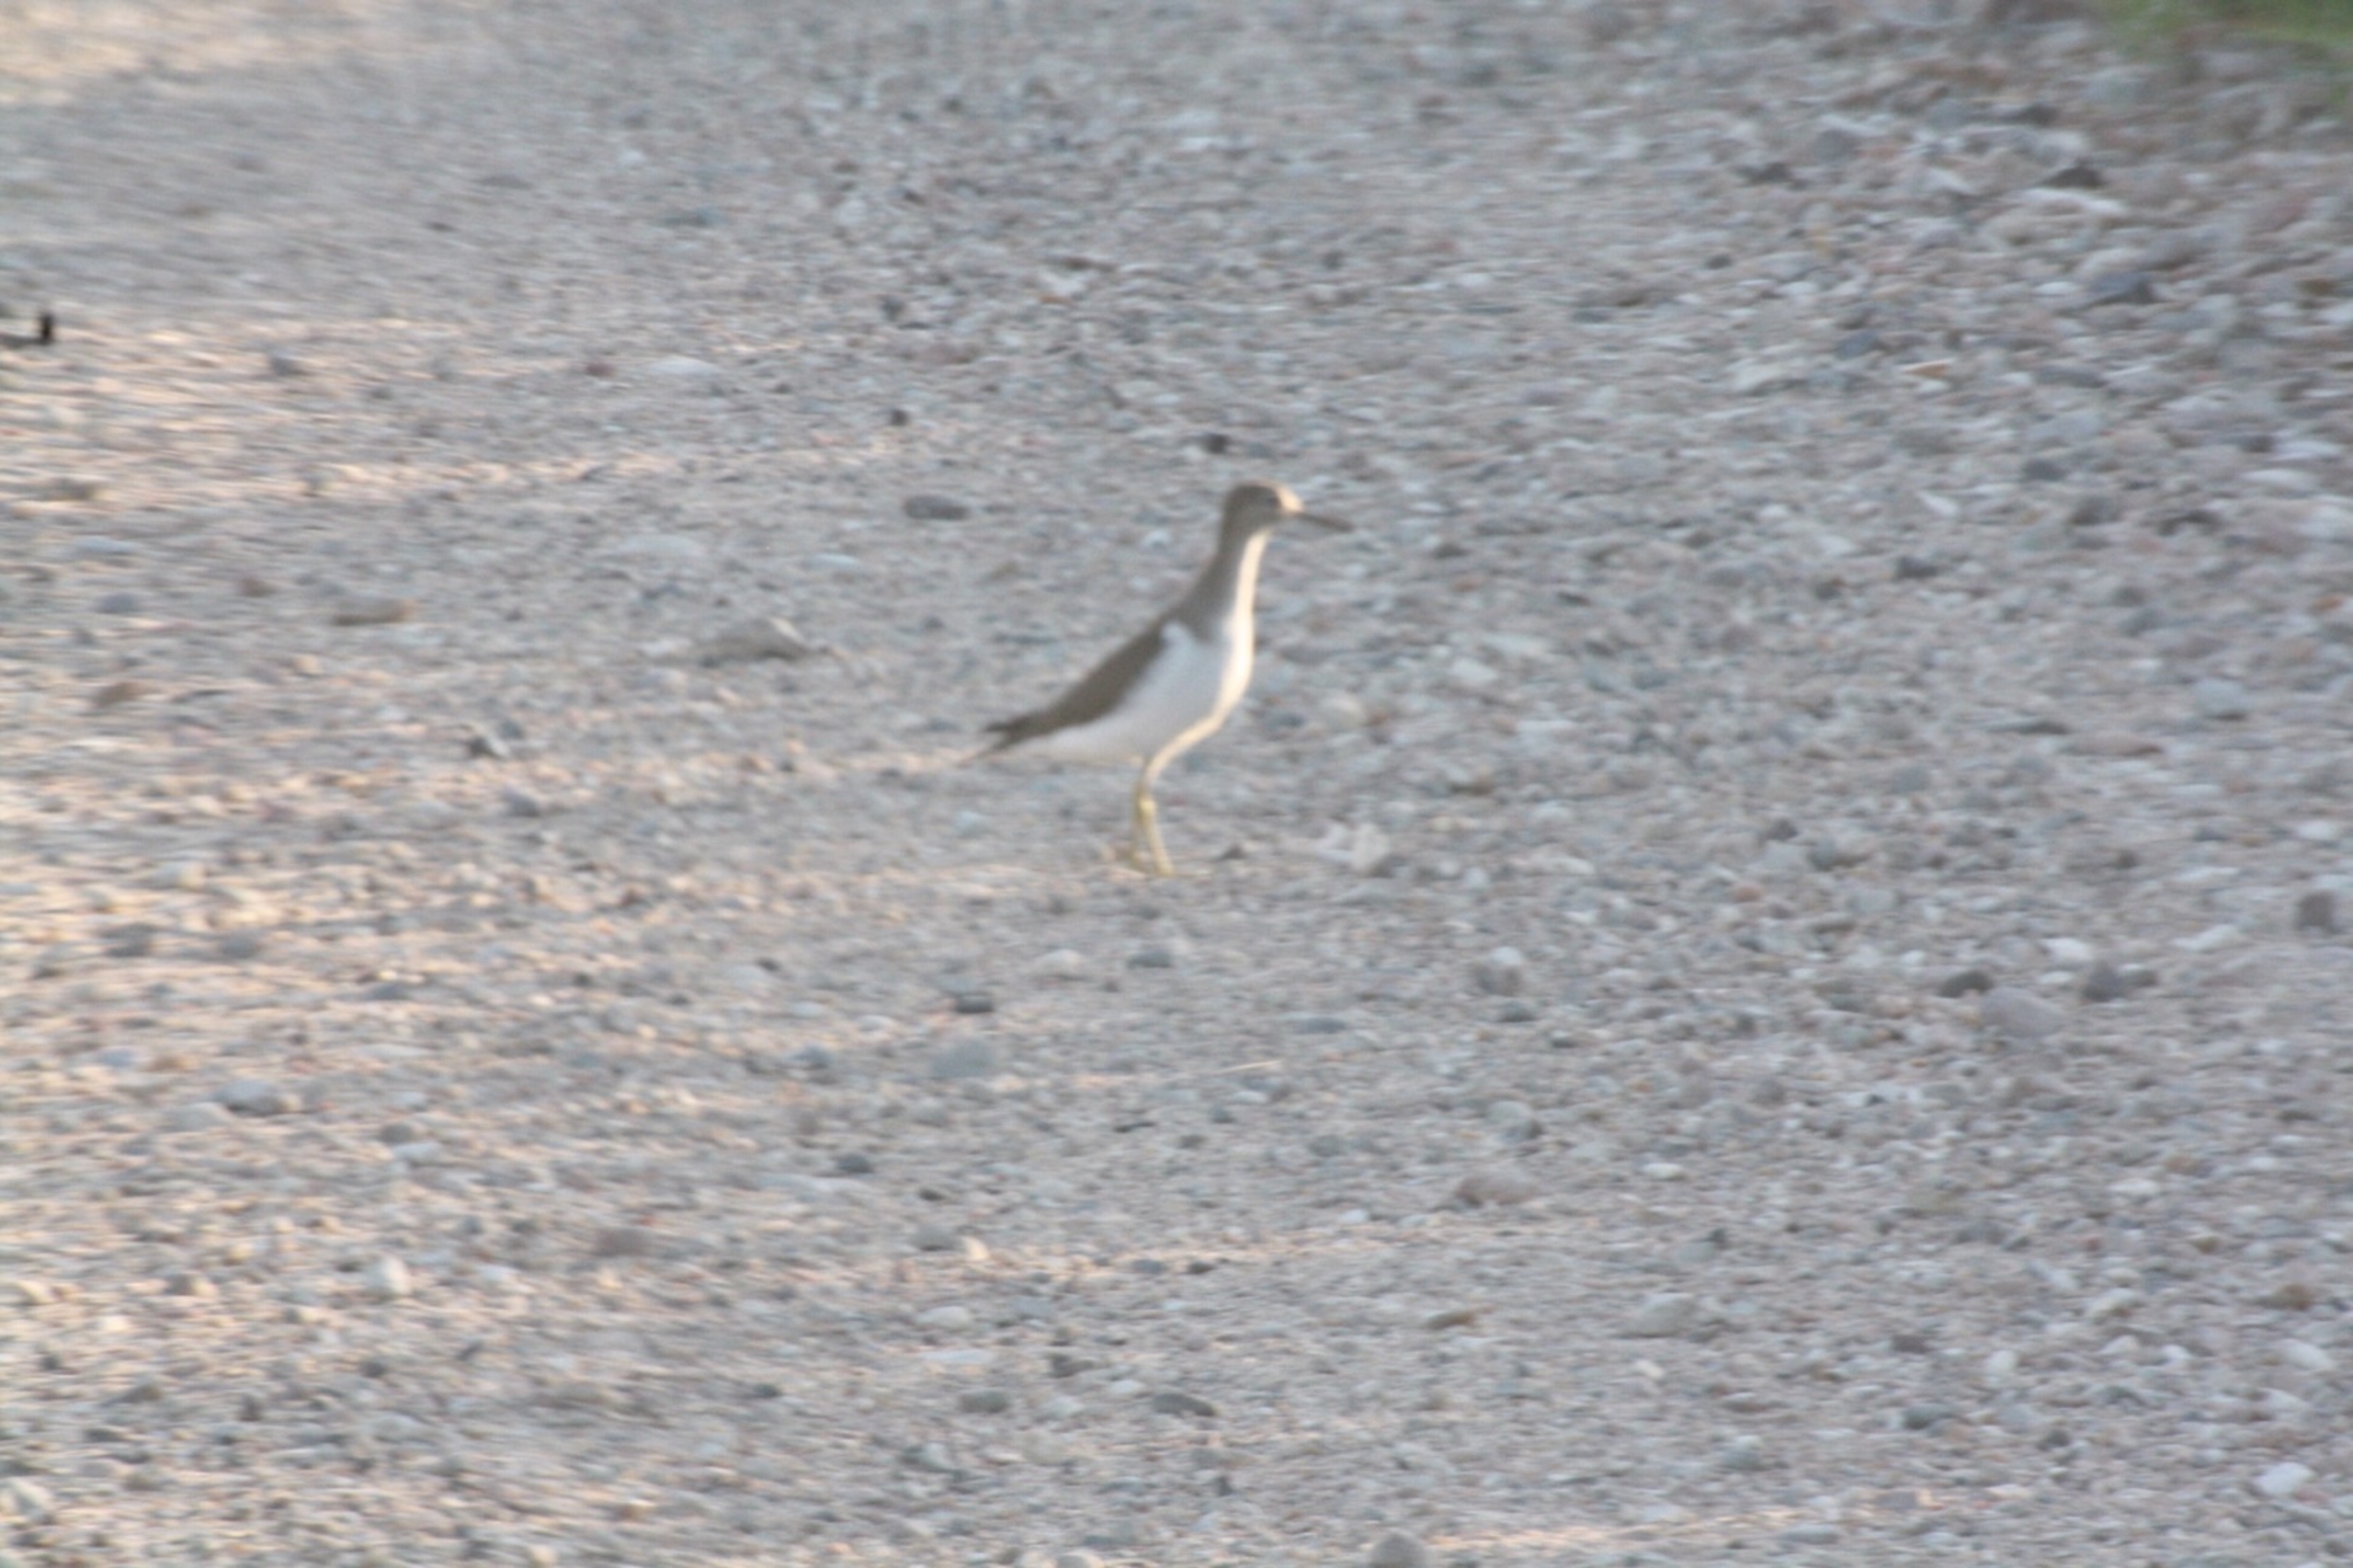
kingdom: Animalia
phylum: Chordata
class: Aves
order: Charadriiformes
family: Scolopacidae
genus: Actitis
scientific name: Actitis hypoleucos
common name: Mudderklire
